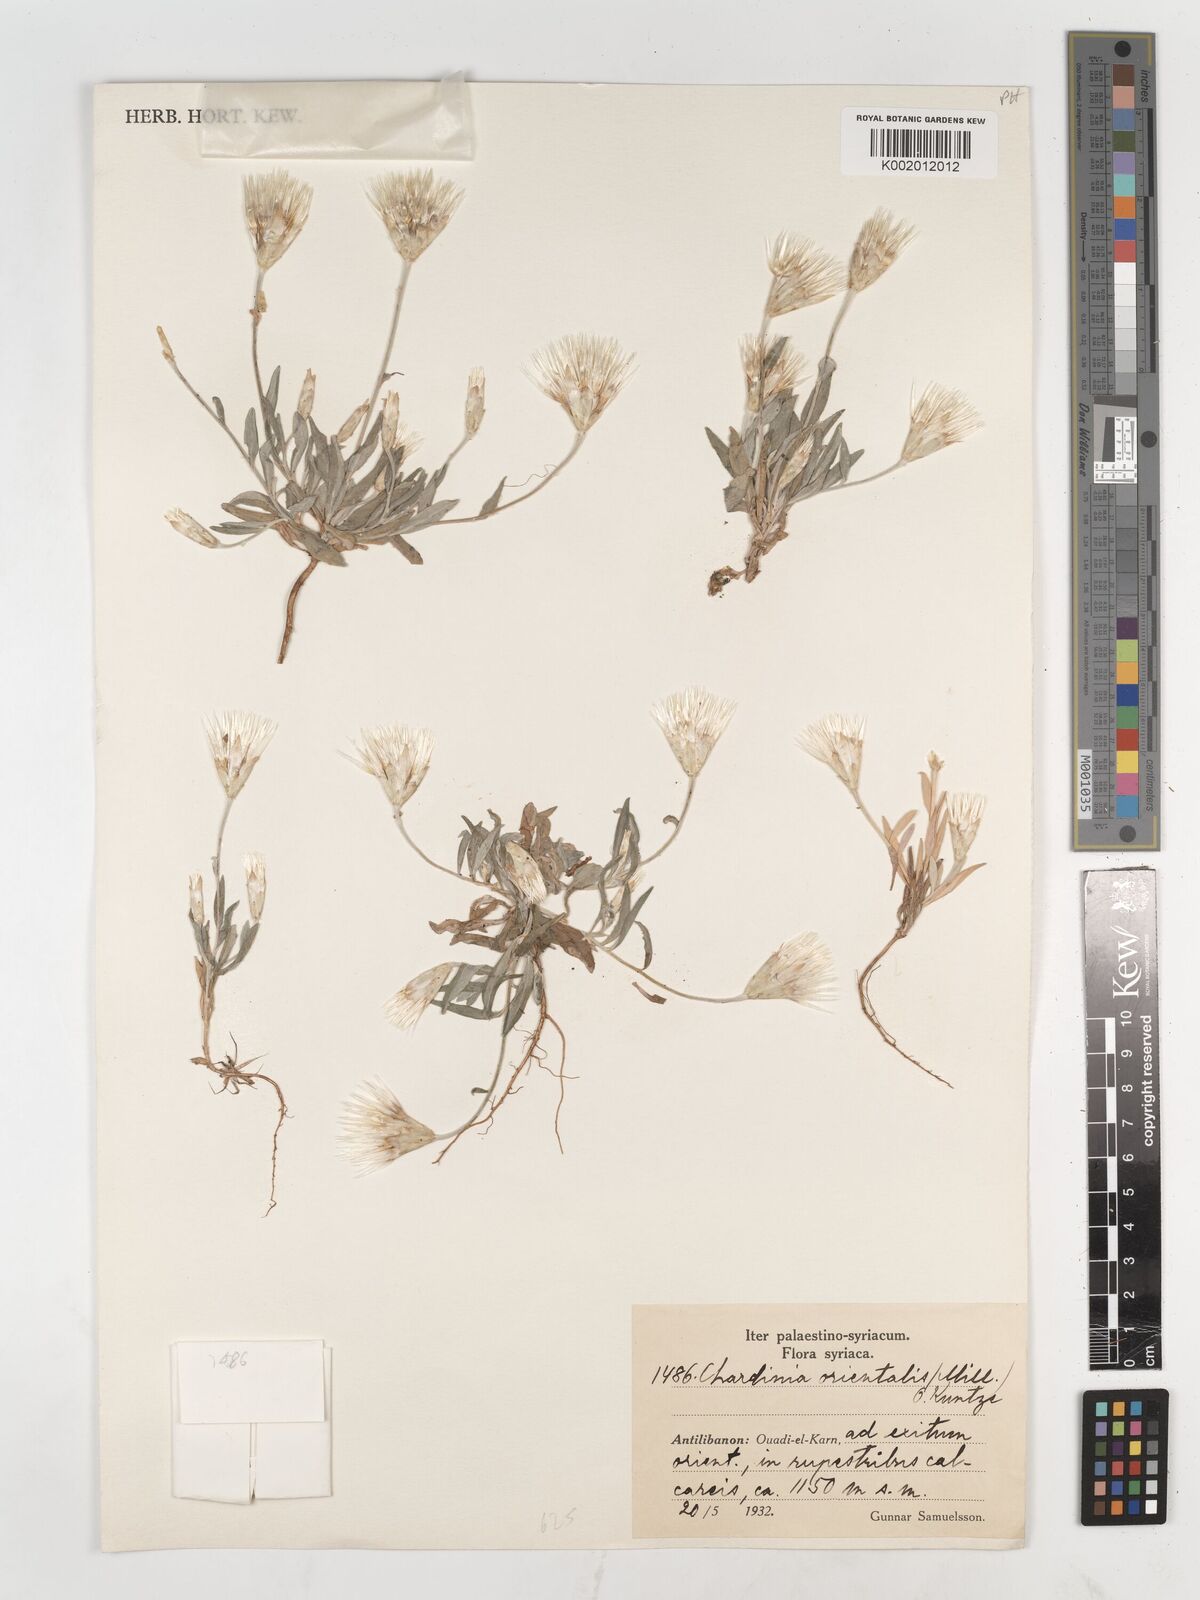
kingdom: Plantae
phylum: Tracheophyta
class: Magnoliopsida
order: Asterales
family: Asteraceae
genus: Chardinia
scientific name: Chardinia orientalis
